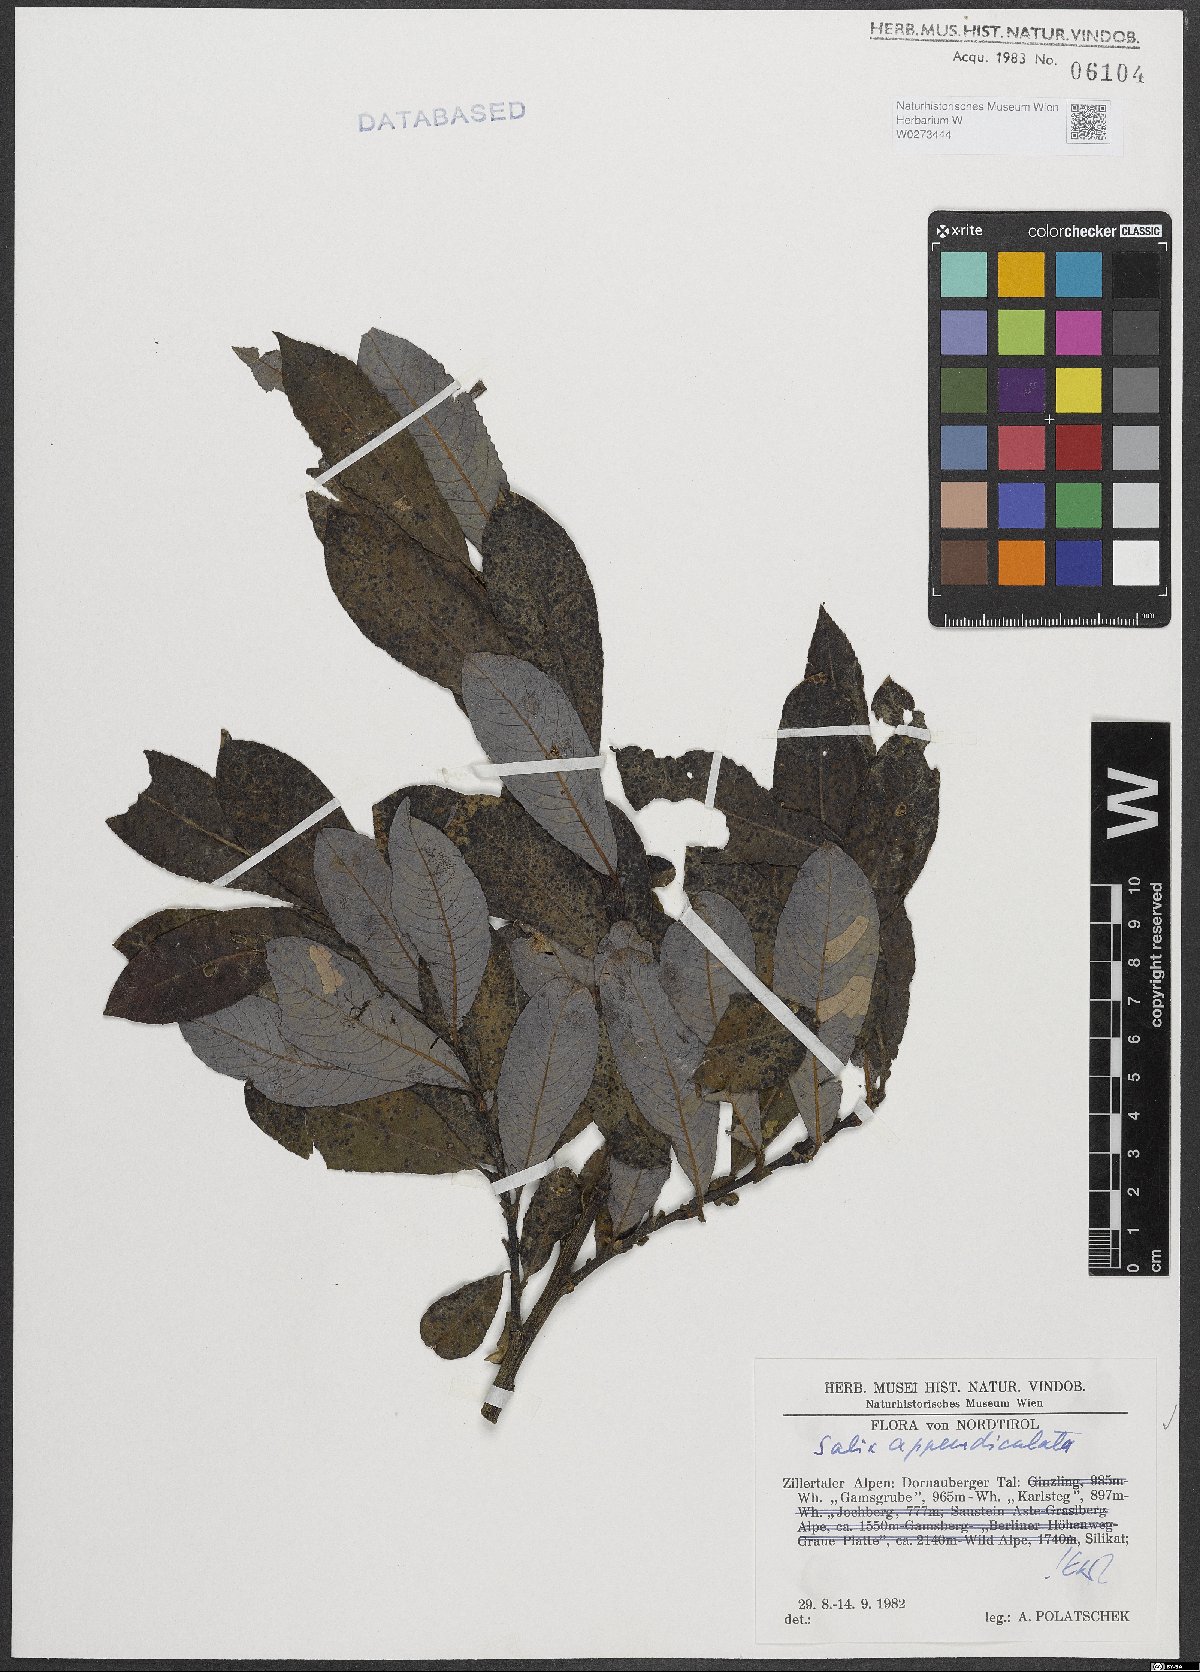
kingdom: Plantae
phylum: Tracheophyta
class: Magnoliopsida
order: Malpighiales
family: Salicaceae
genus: Salix
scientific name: Salix appendiculata
